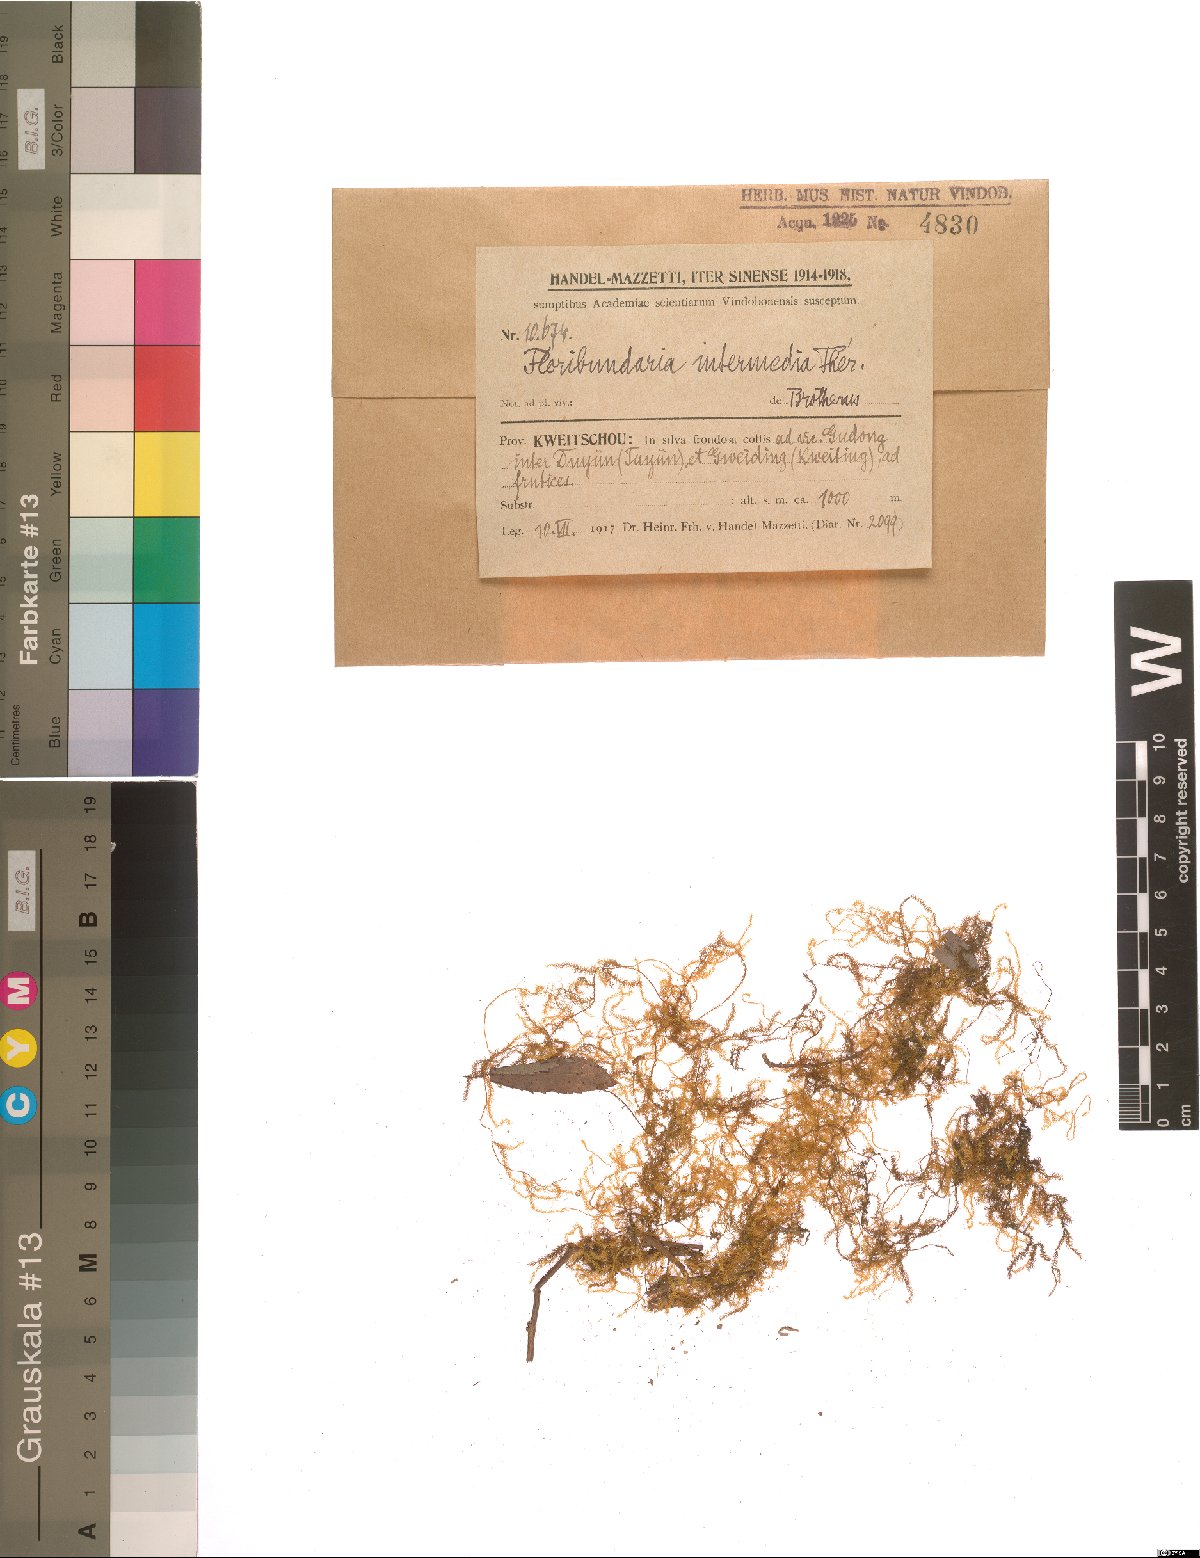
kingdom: Plantae
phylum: Bryophyta
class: Bryopsida
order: Hypnales
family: Meteoriaceae
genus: Floribundaria
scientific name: Floribundaria intermedia
